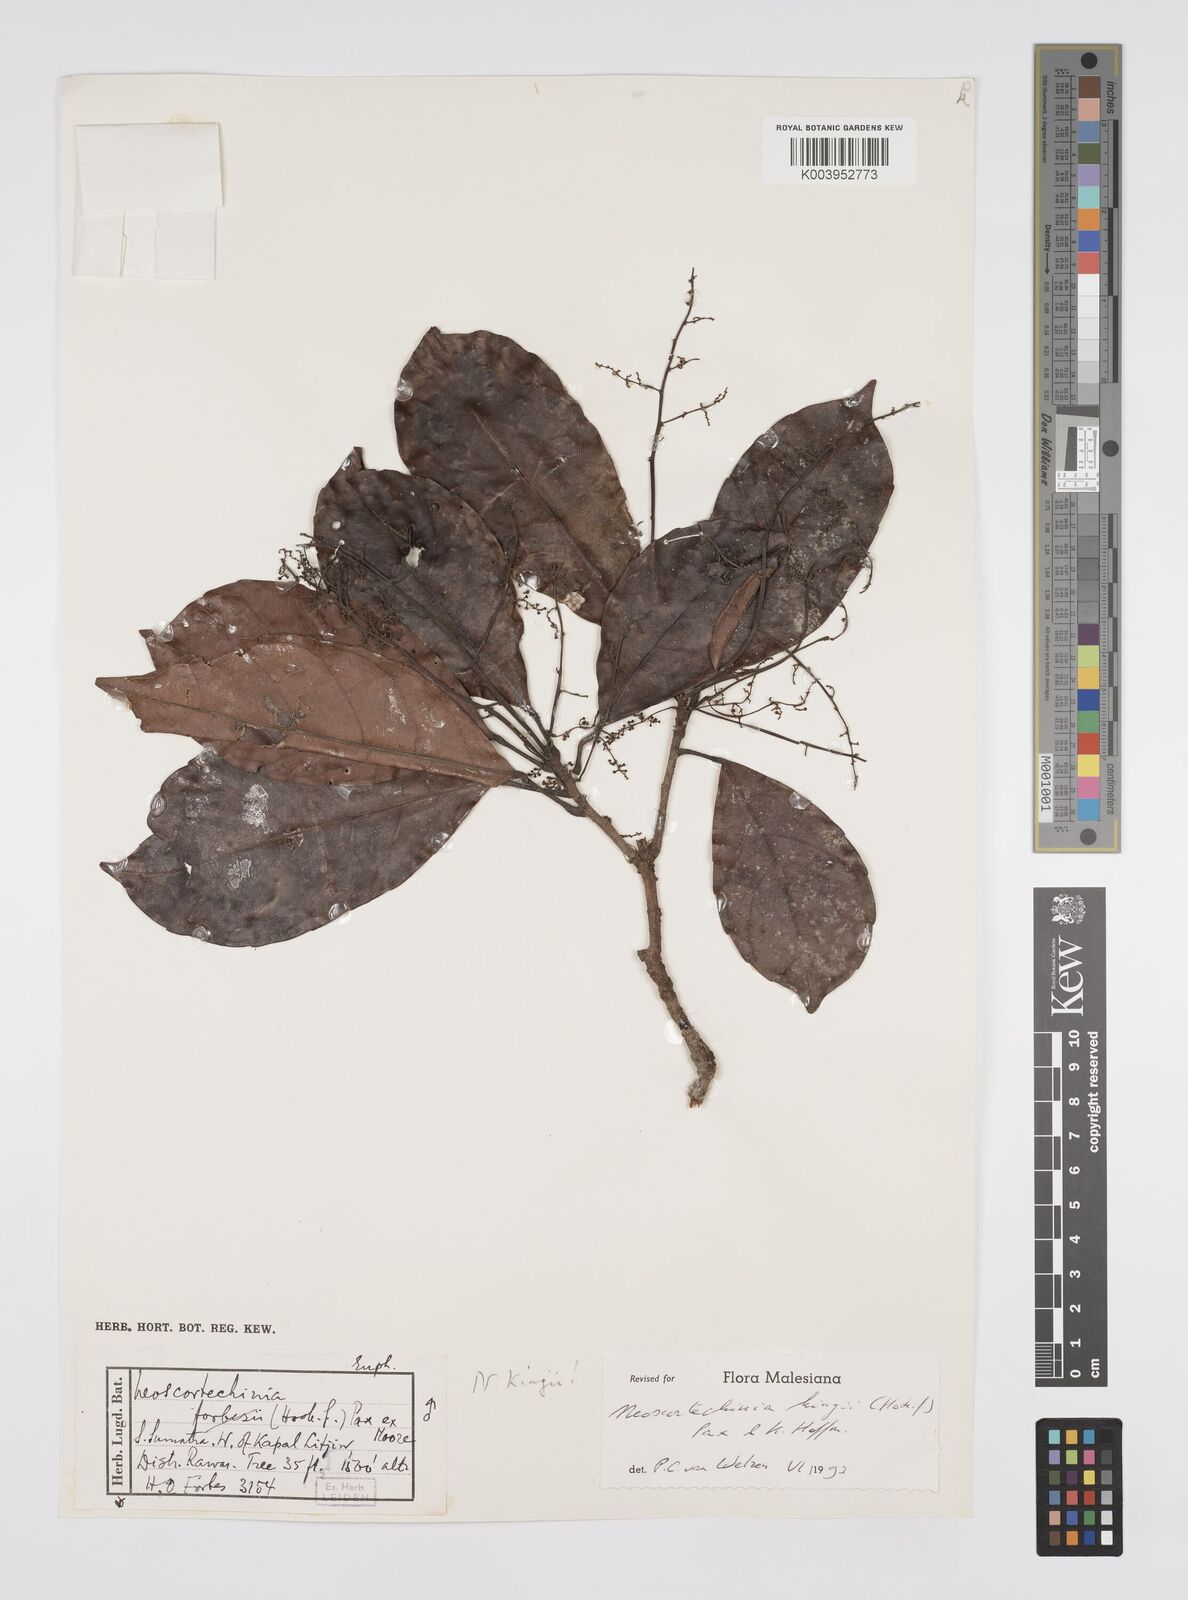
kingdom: Plantae
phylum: Tracheophyta
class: Magnoliopsida
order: Malpighiales
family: Euphorbiaceae
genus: Neoscortechinia
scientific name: Neoscortechinia kingii
